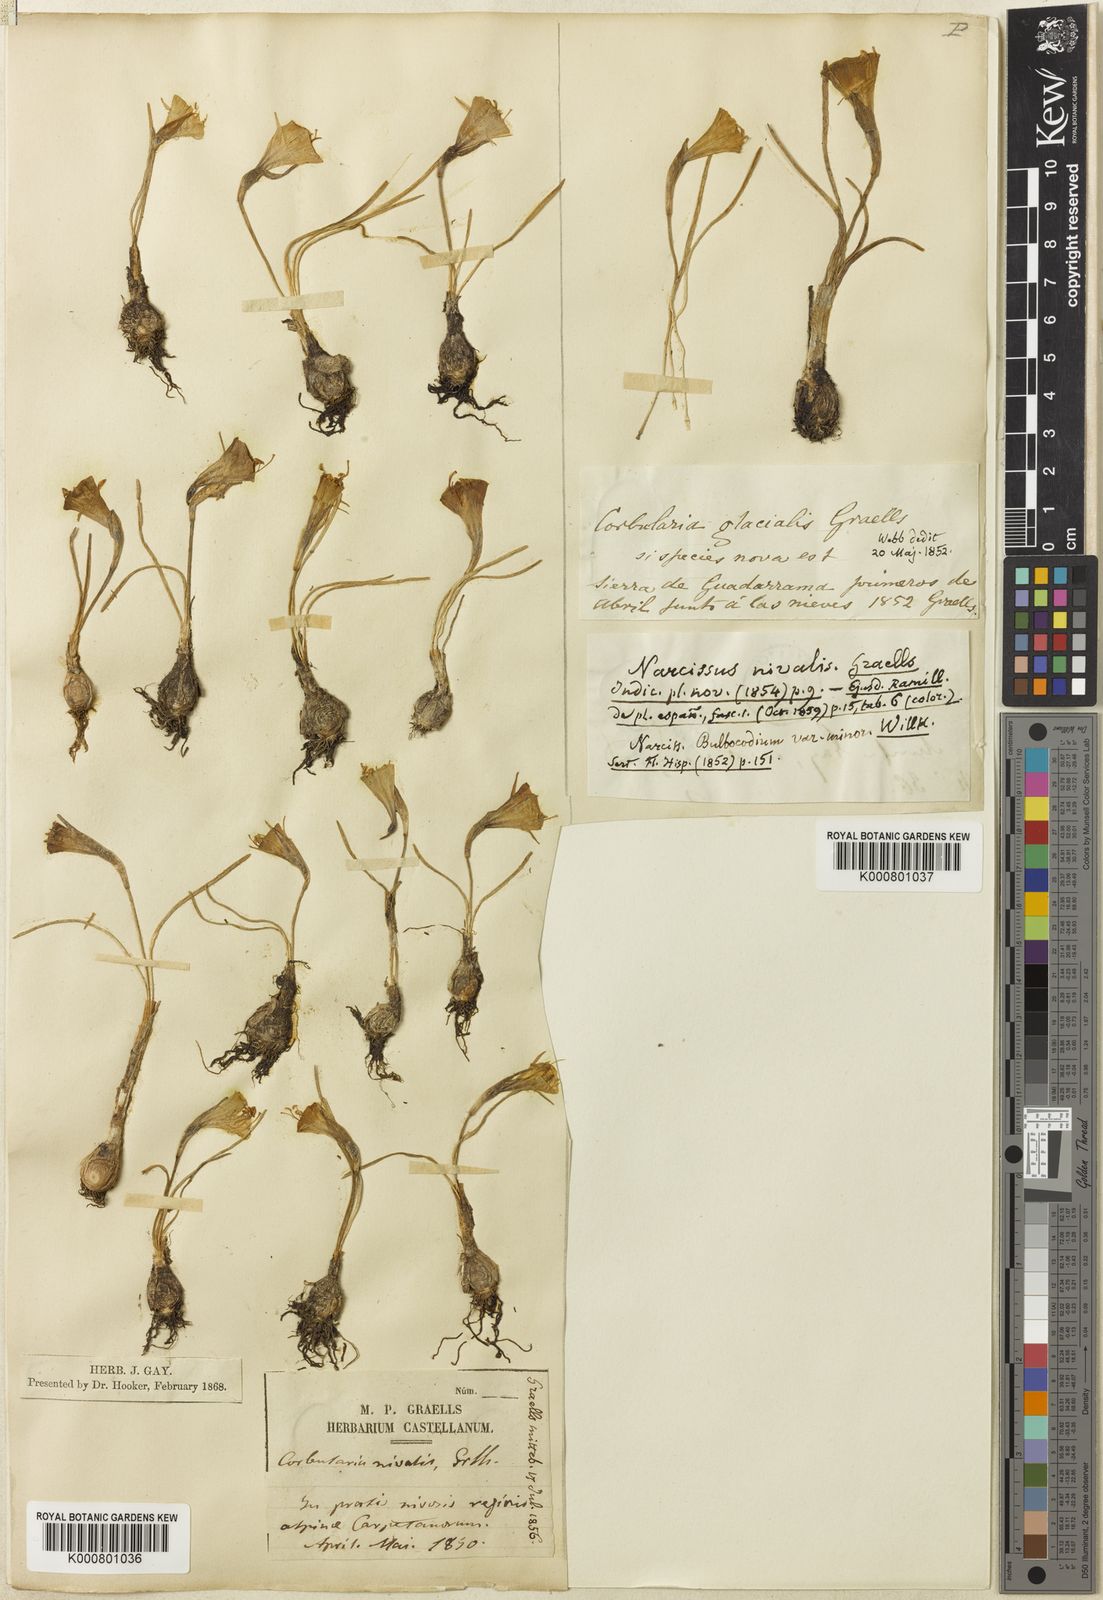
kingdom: Plantae
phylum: Tracheophyta
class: Liliopsida
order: Asparagales
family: Amaryllidaceae
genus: Narcissus
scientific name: Narcissus bulbocodium
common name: Hoop-petticoat daffodil
